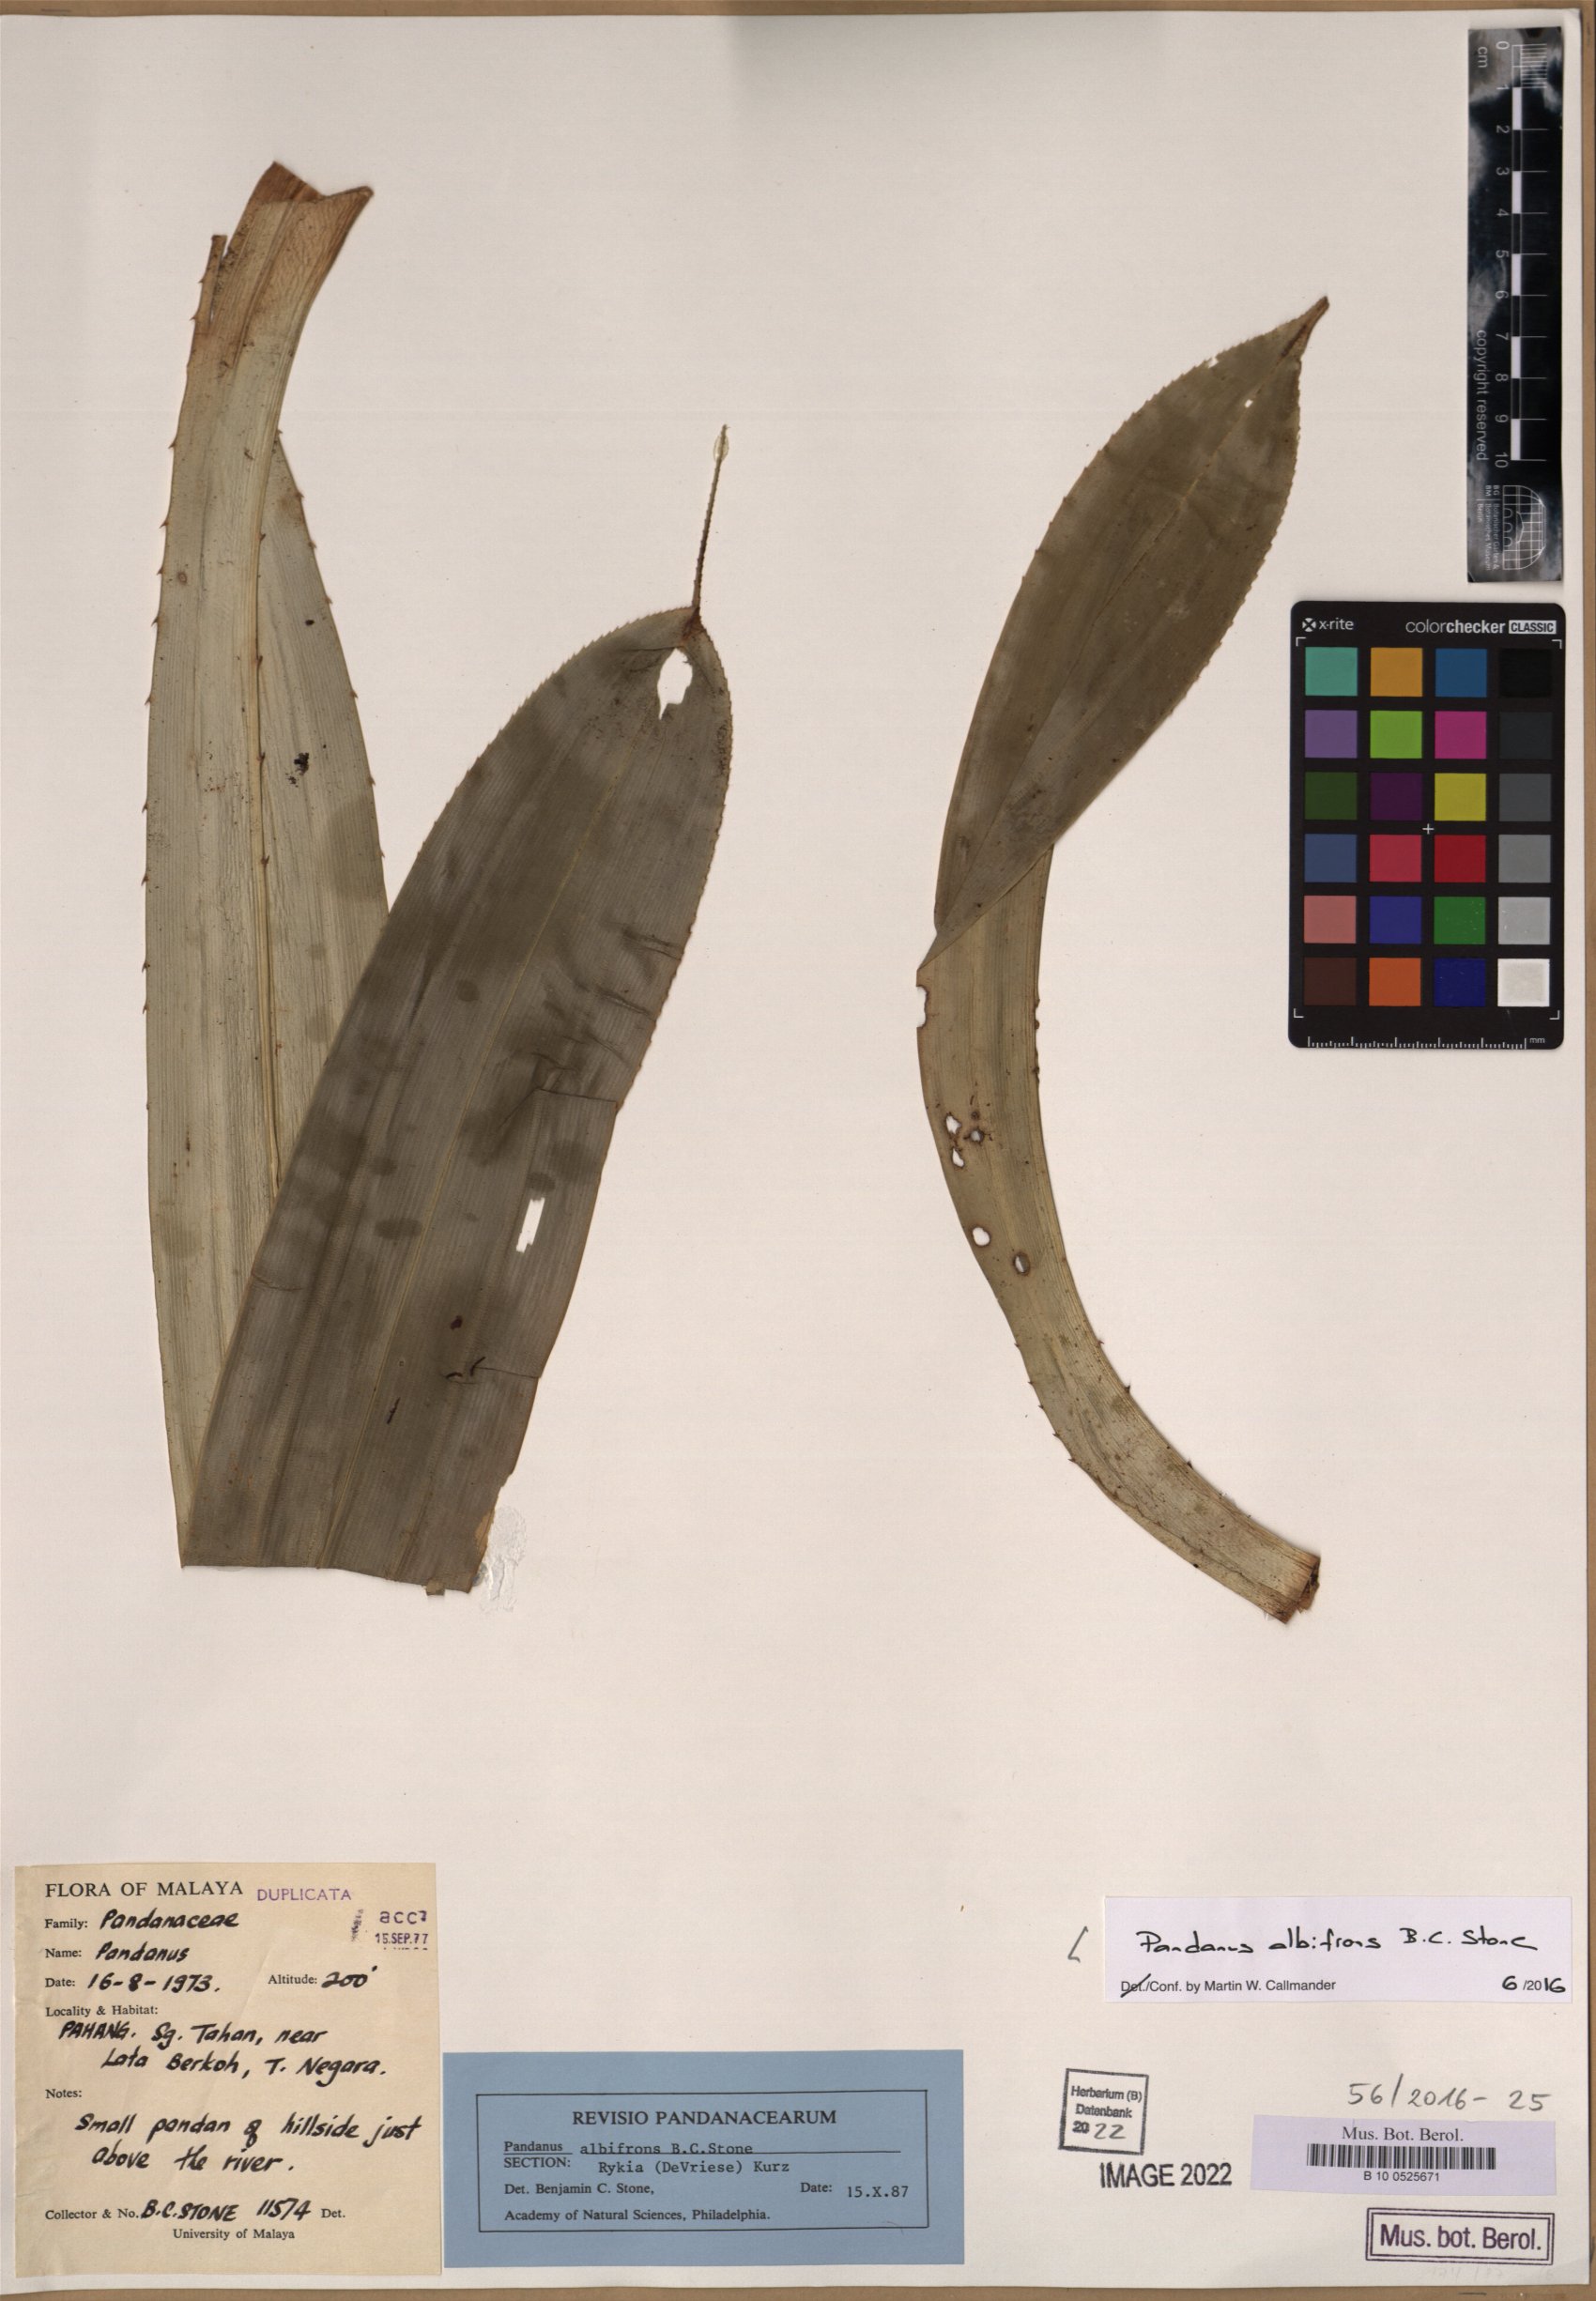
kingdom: Plantae
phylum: Tracheophyta
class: Liliopsida
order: Pandanales
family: Pandanaceae
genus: Pandanus
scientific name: Pandanus albifrons
